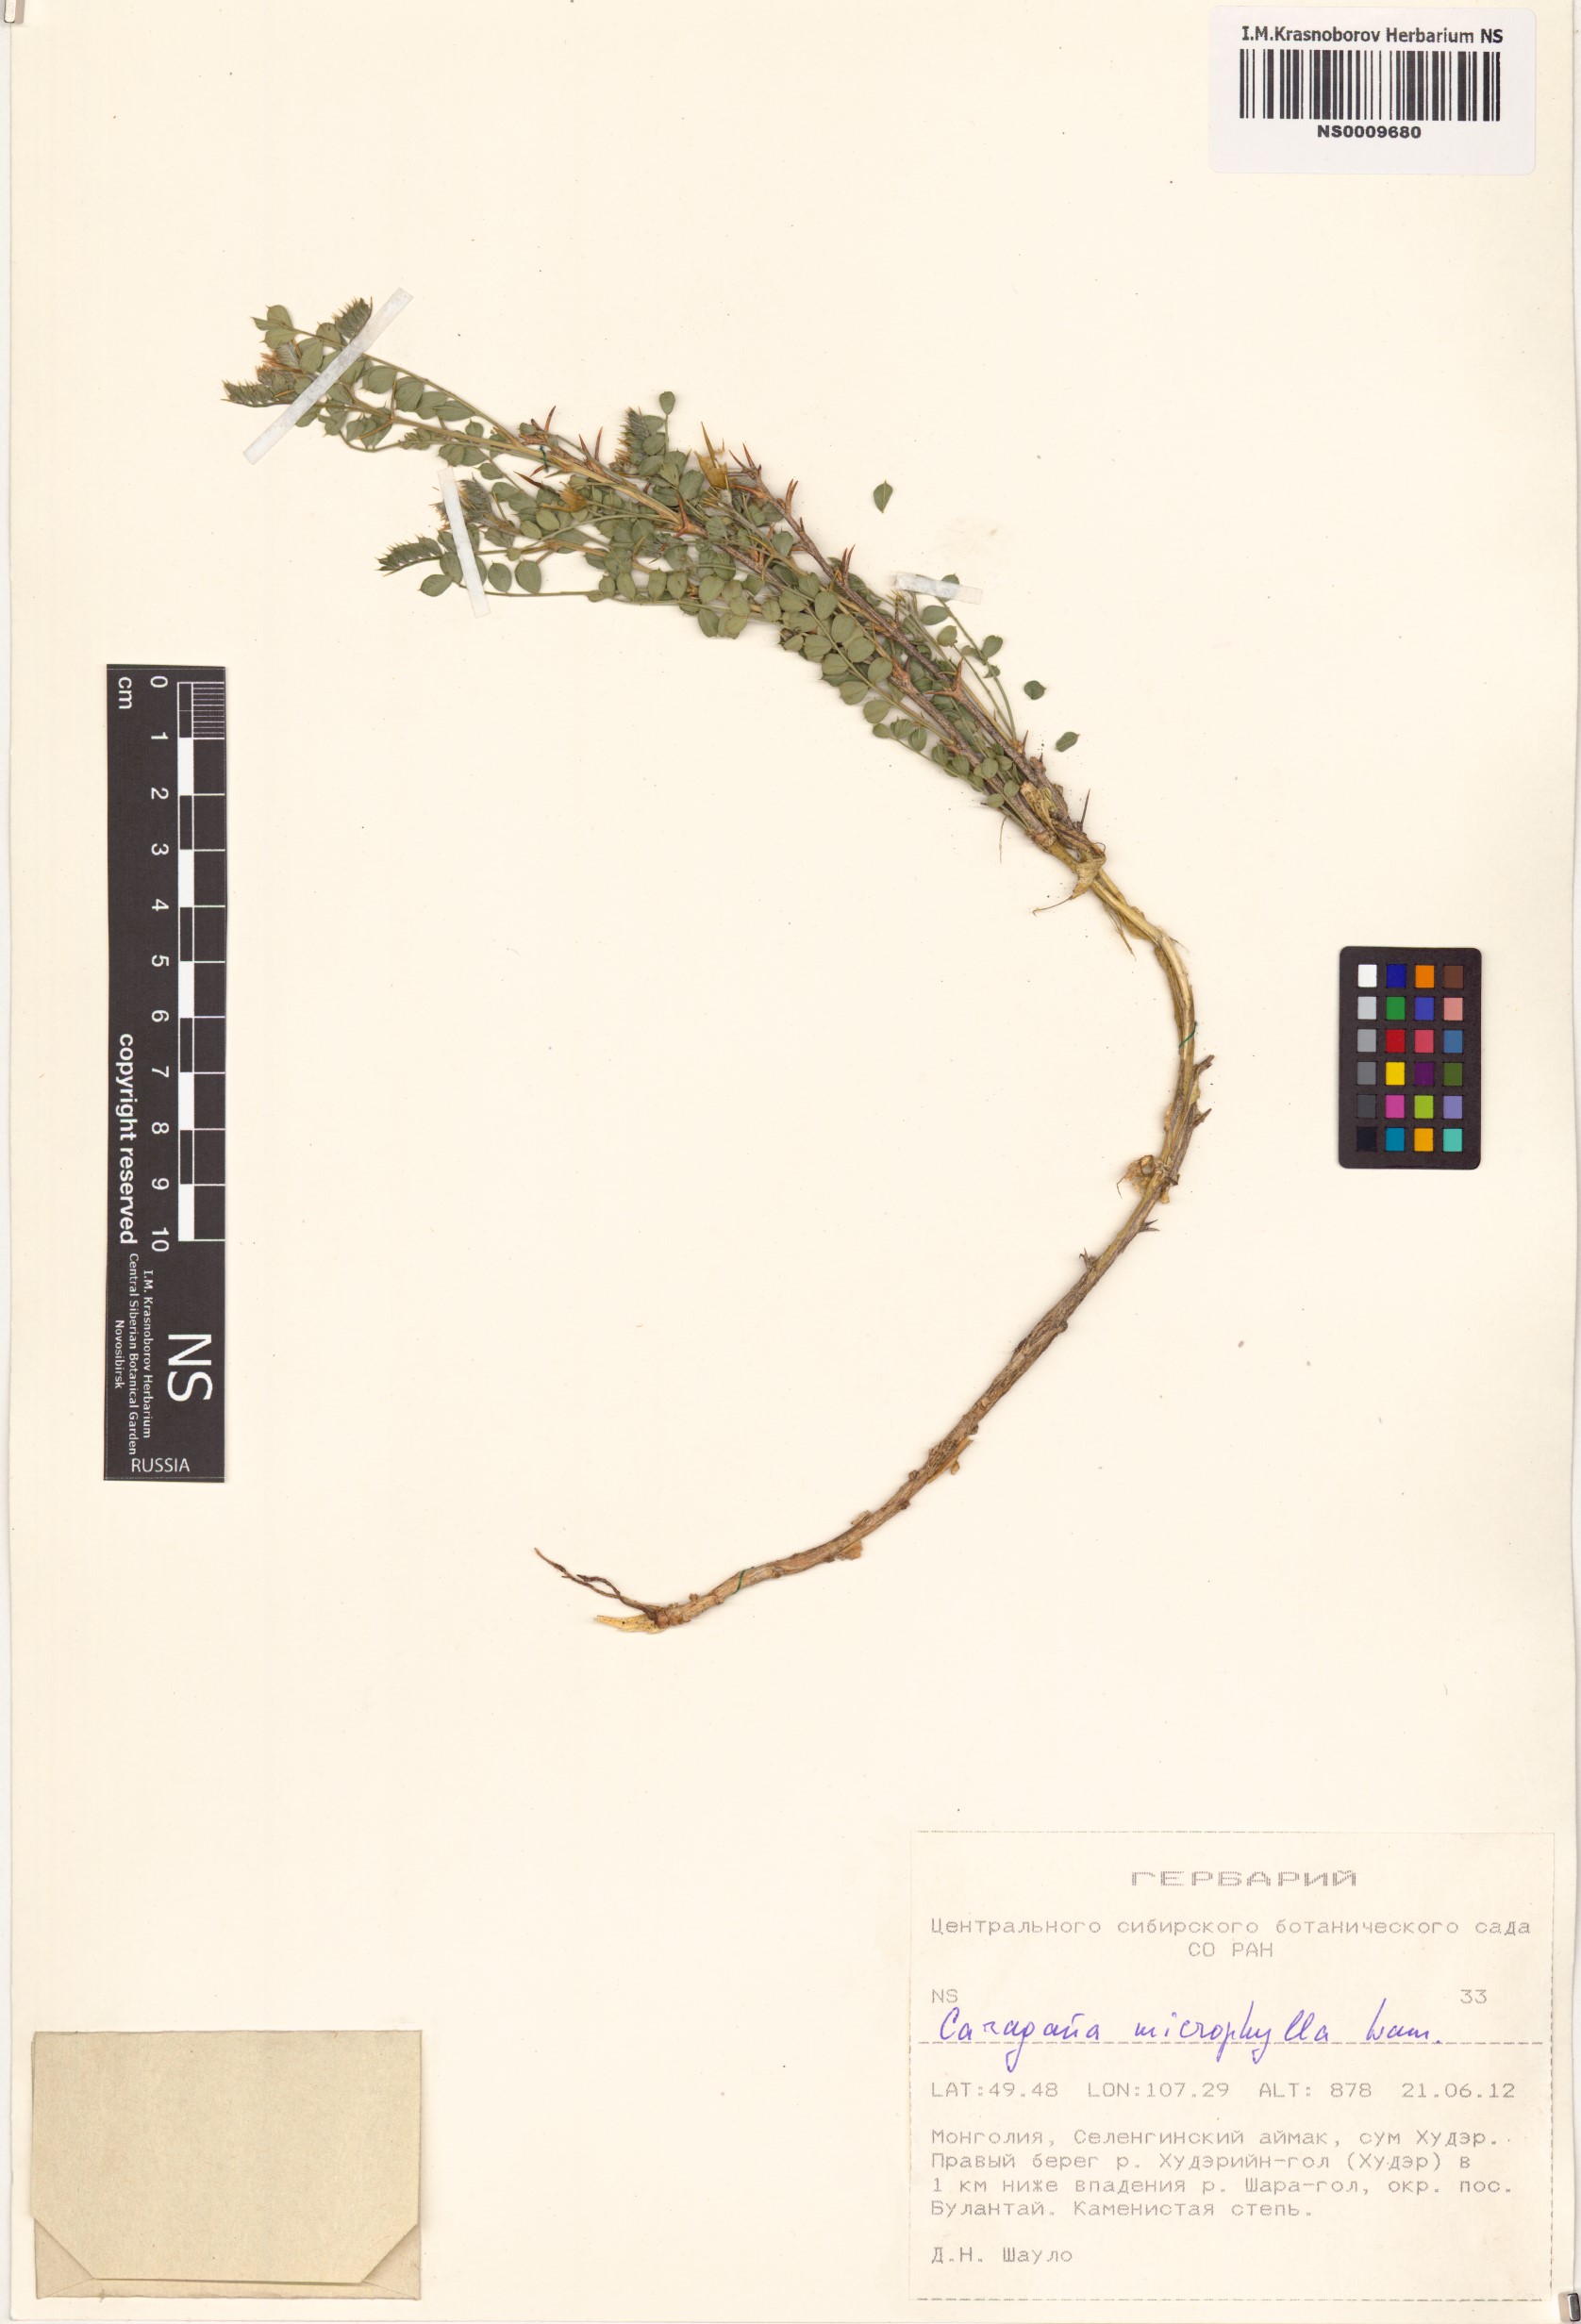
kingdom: Plantae
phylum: Tracheophyta
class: Magnoliopsida
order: Fabales
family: Fabaceae
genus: Caragana
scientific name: Caragana microphylla
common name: Littleleaf peashrub
